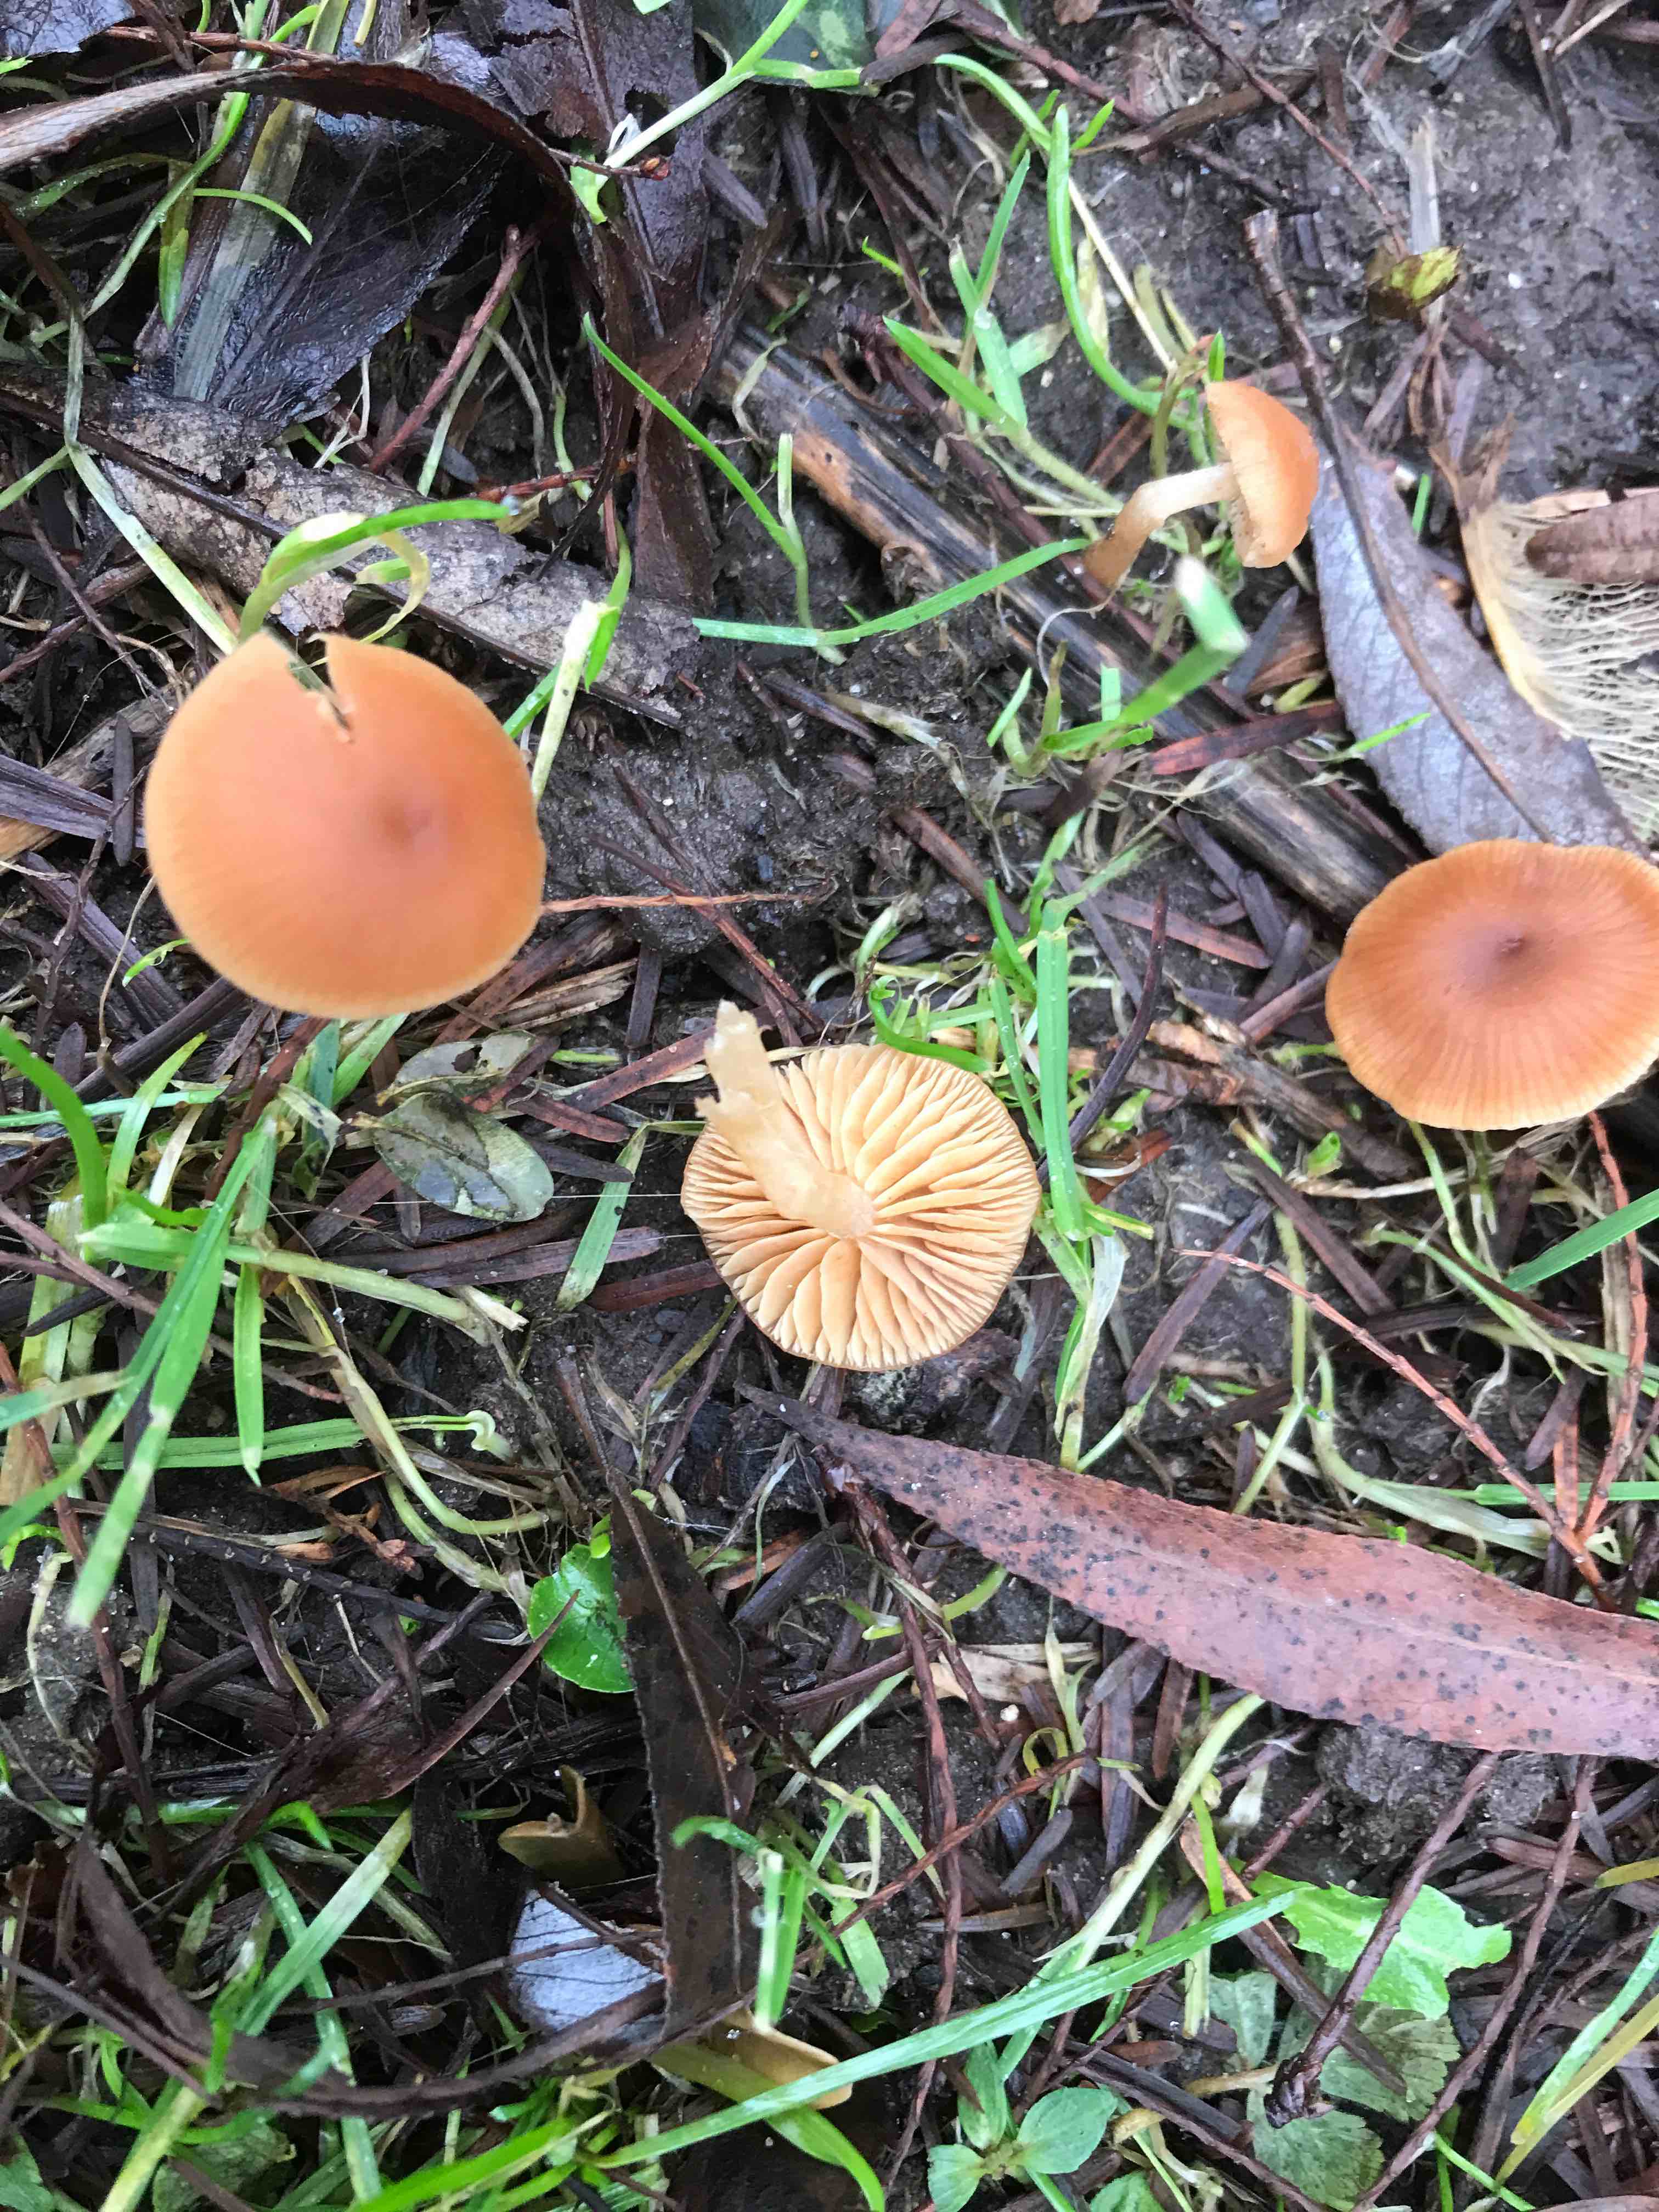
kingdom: Fungi
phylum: Basidiomycota
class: Agaricomycetes
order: Agaricales
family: Tubariaceae
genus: Tubaria
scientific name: Tubaria furfuracea
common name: kliddet fnughat
